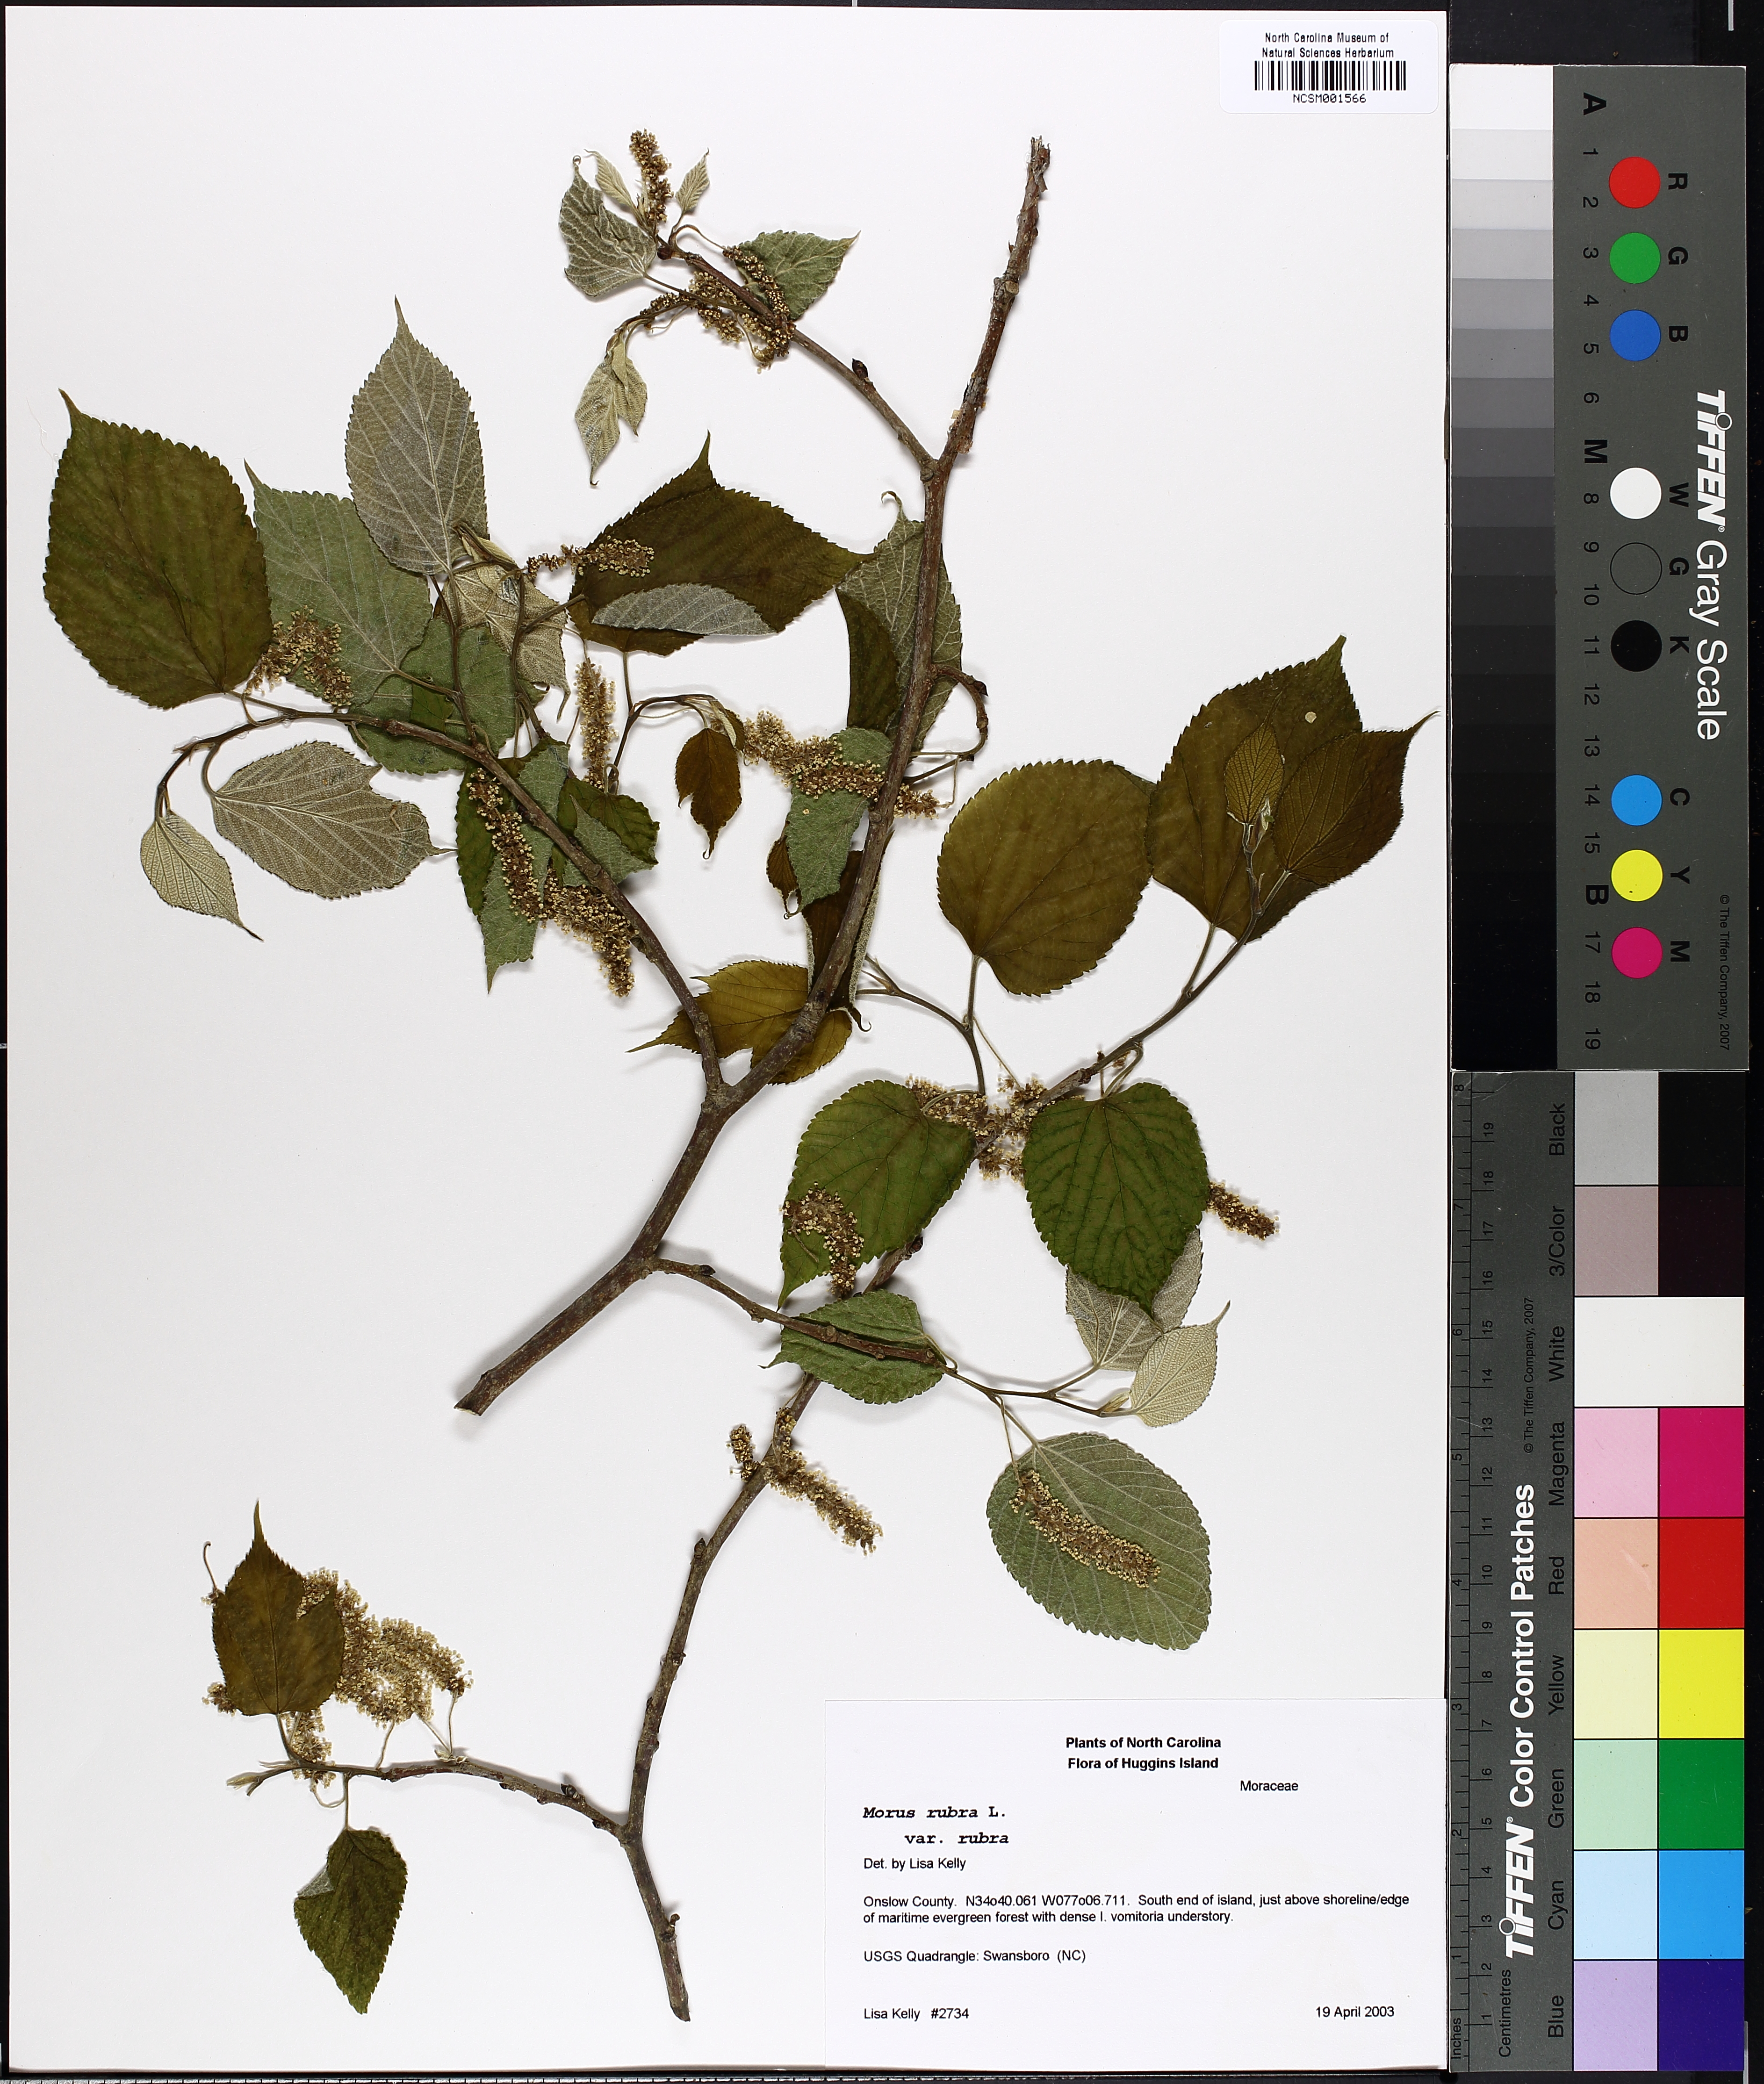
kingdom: Plantae
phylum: Tracheophyta
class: Magnoliopsida
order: Rosales
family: Moraceae
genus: Morus
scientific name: Morus rubra
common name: Red mulberry
